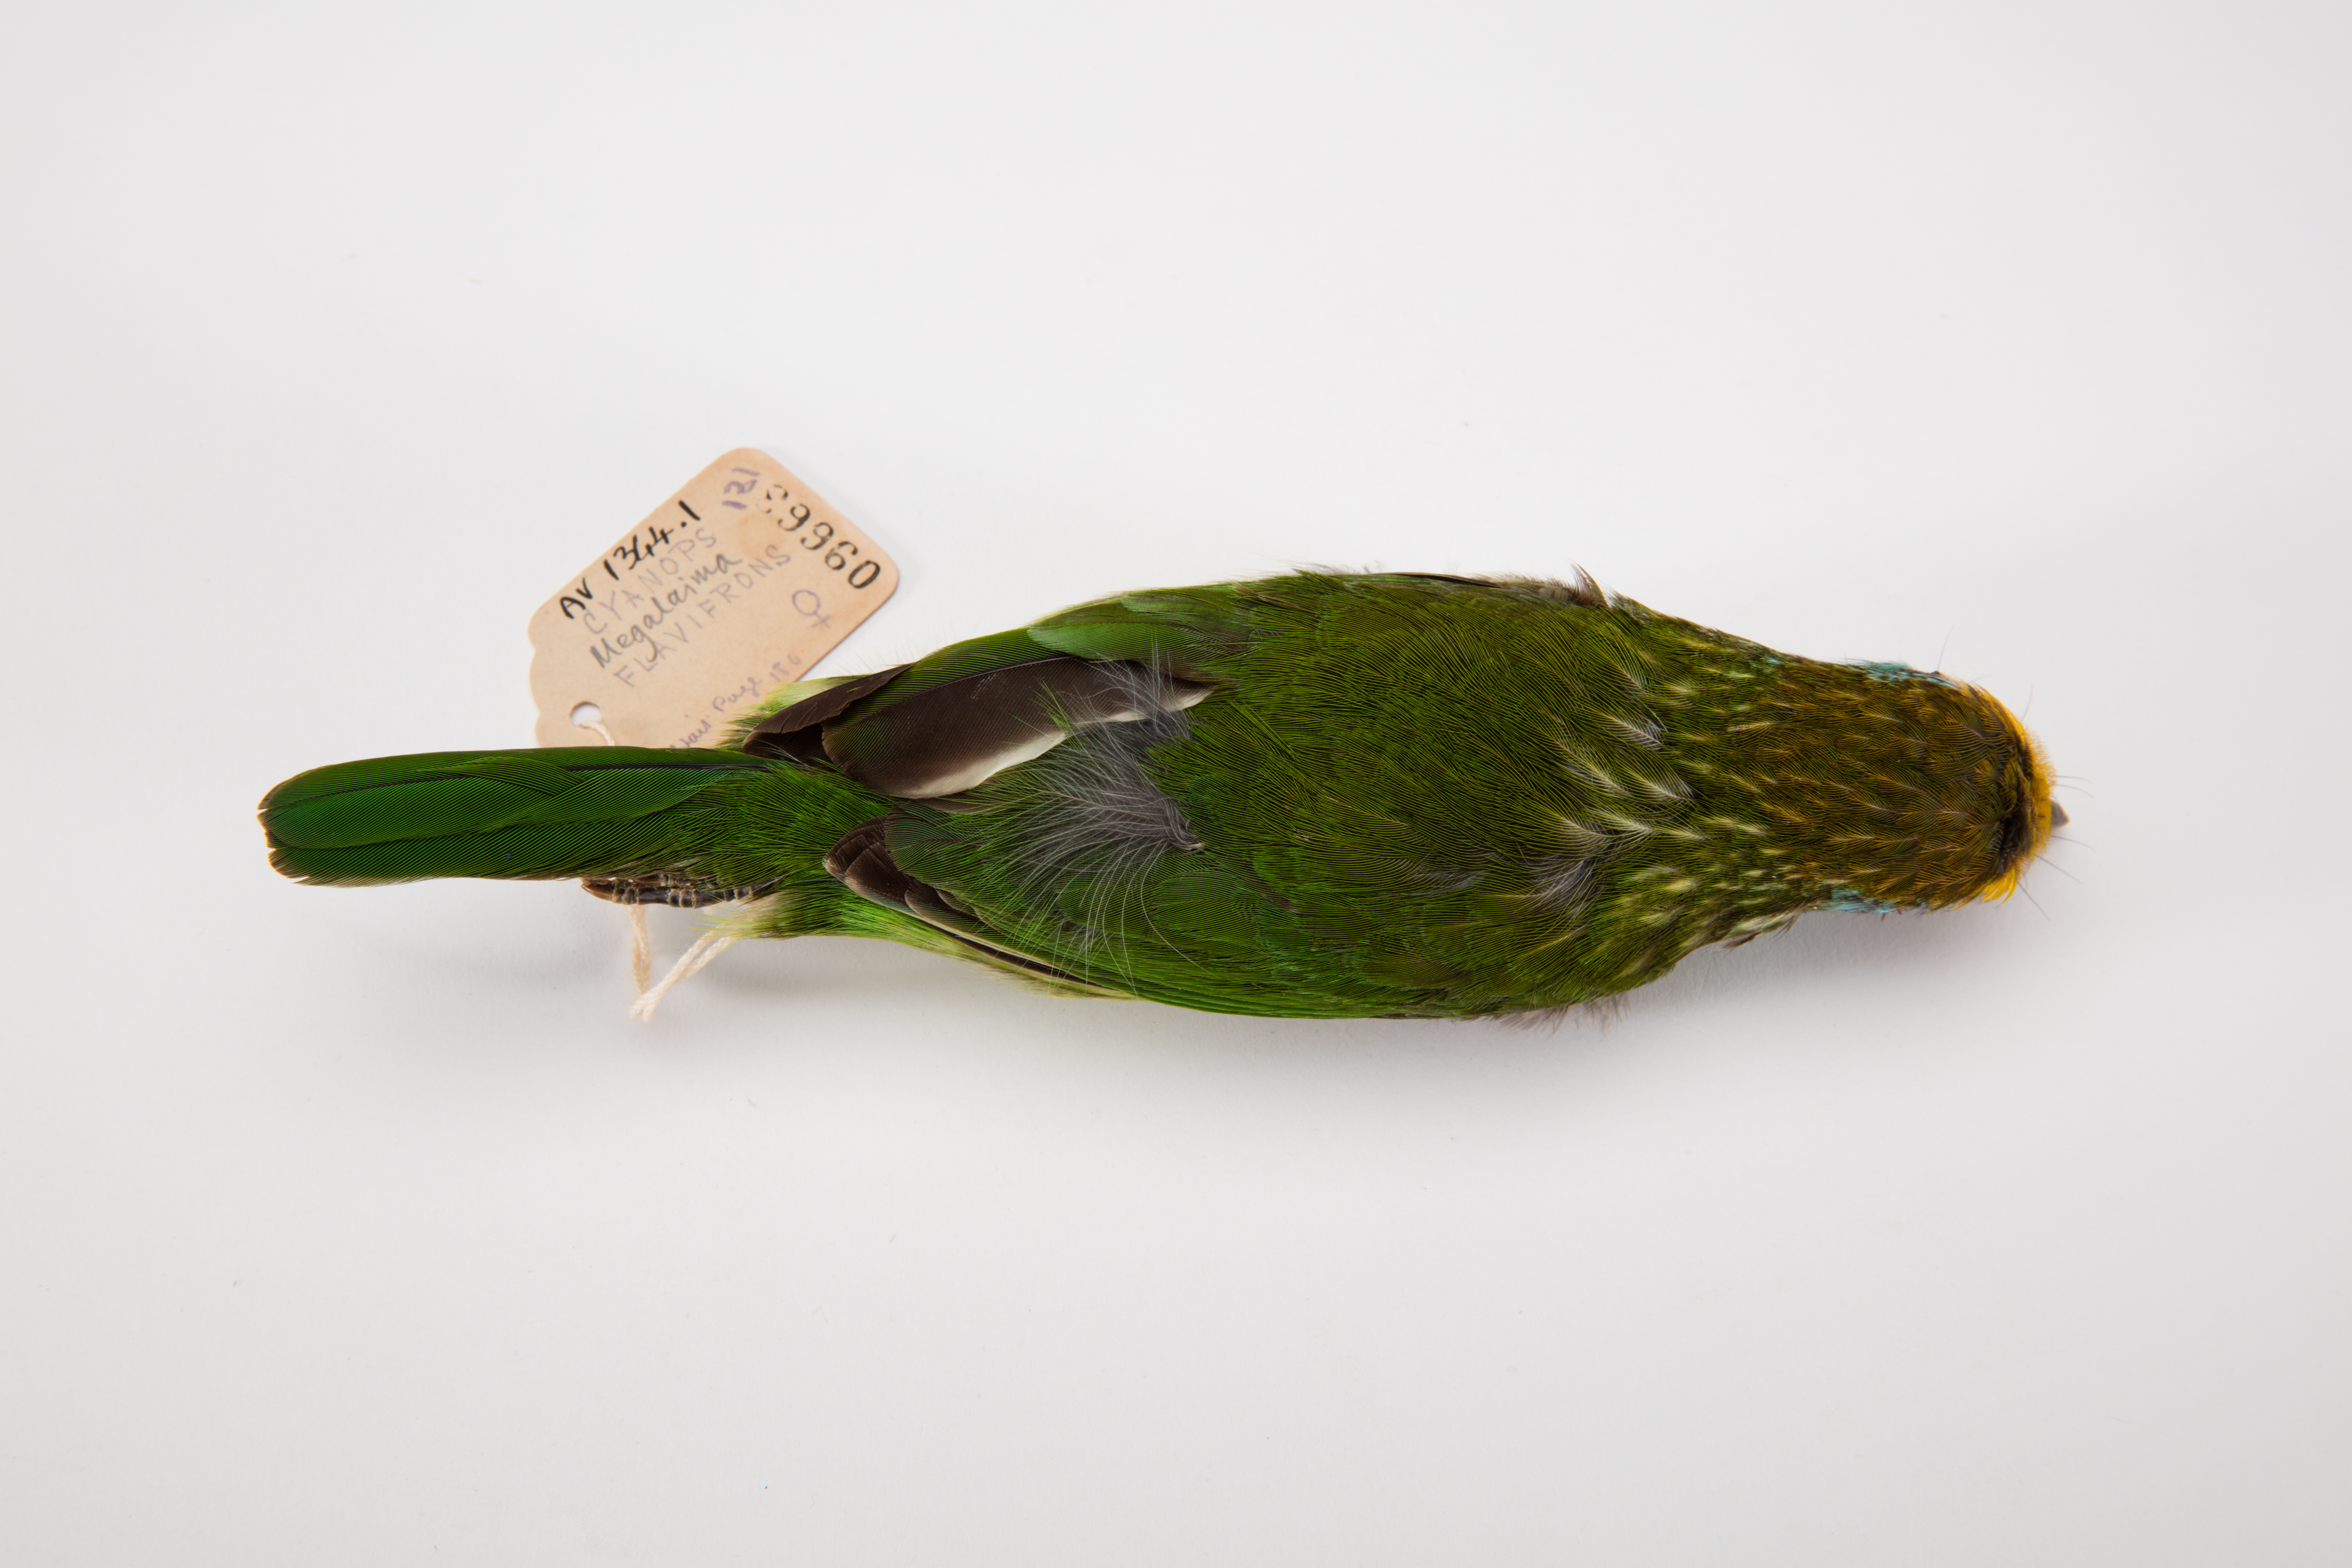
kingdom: Animalia
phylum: Chordata
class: Aves
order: Piciformes
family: Megalaimidae
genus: Psilopogon
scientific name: Psilopogon flavifrons
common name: Yellow-fronted barbet
